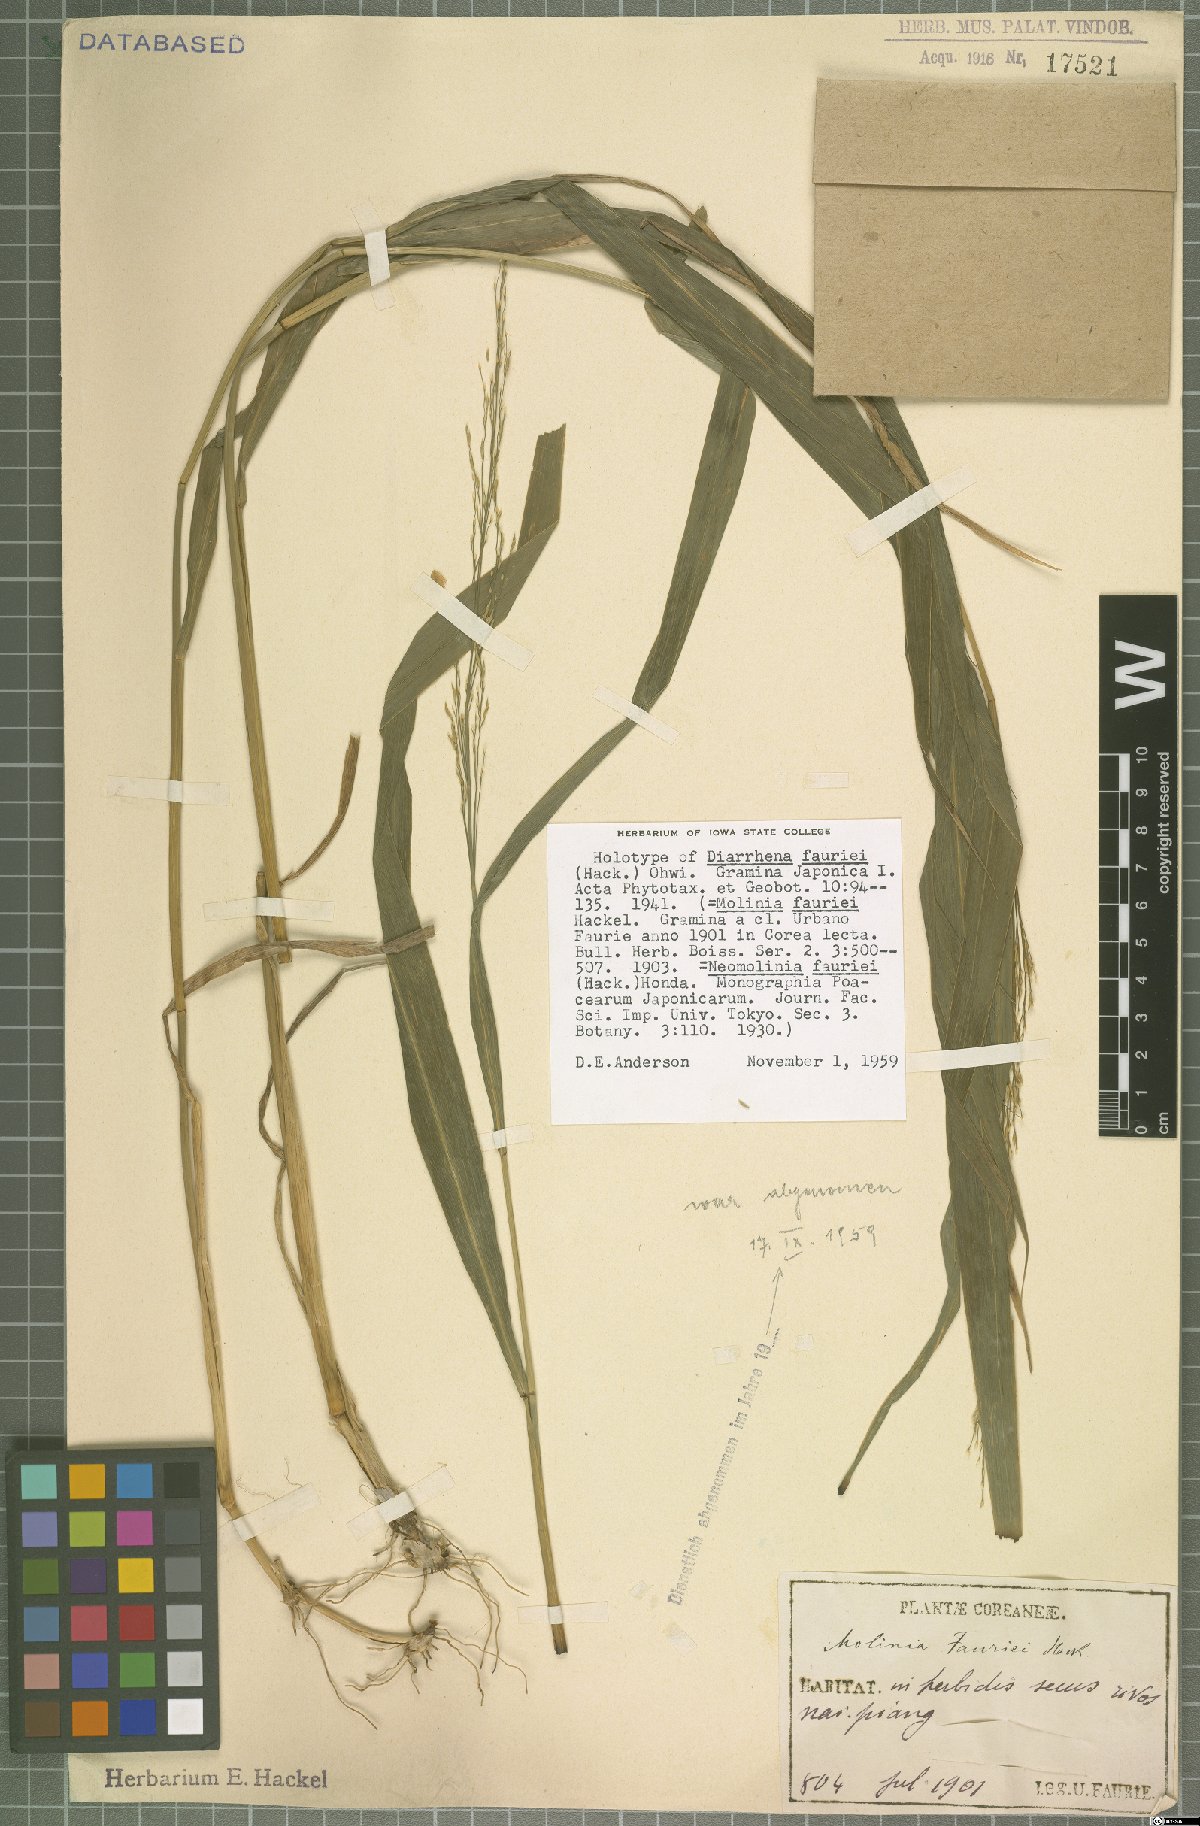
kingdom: Plantae
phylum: Tracheophyta
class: Liliopsida
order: Poales
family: Poaceae
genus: Diarrhena
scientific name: Diarrhena fauriei
